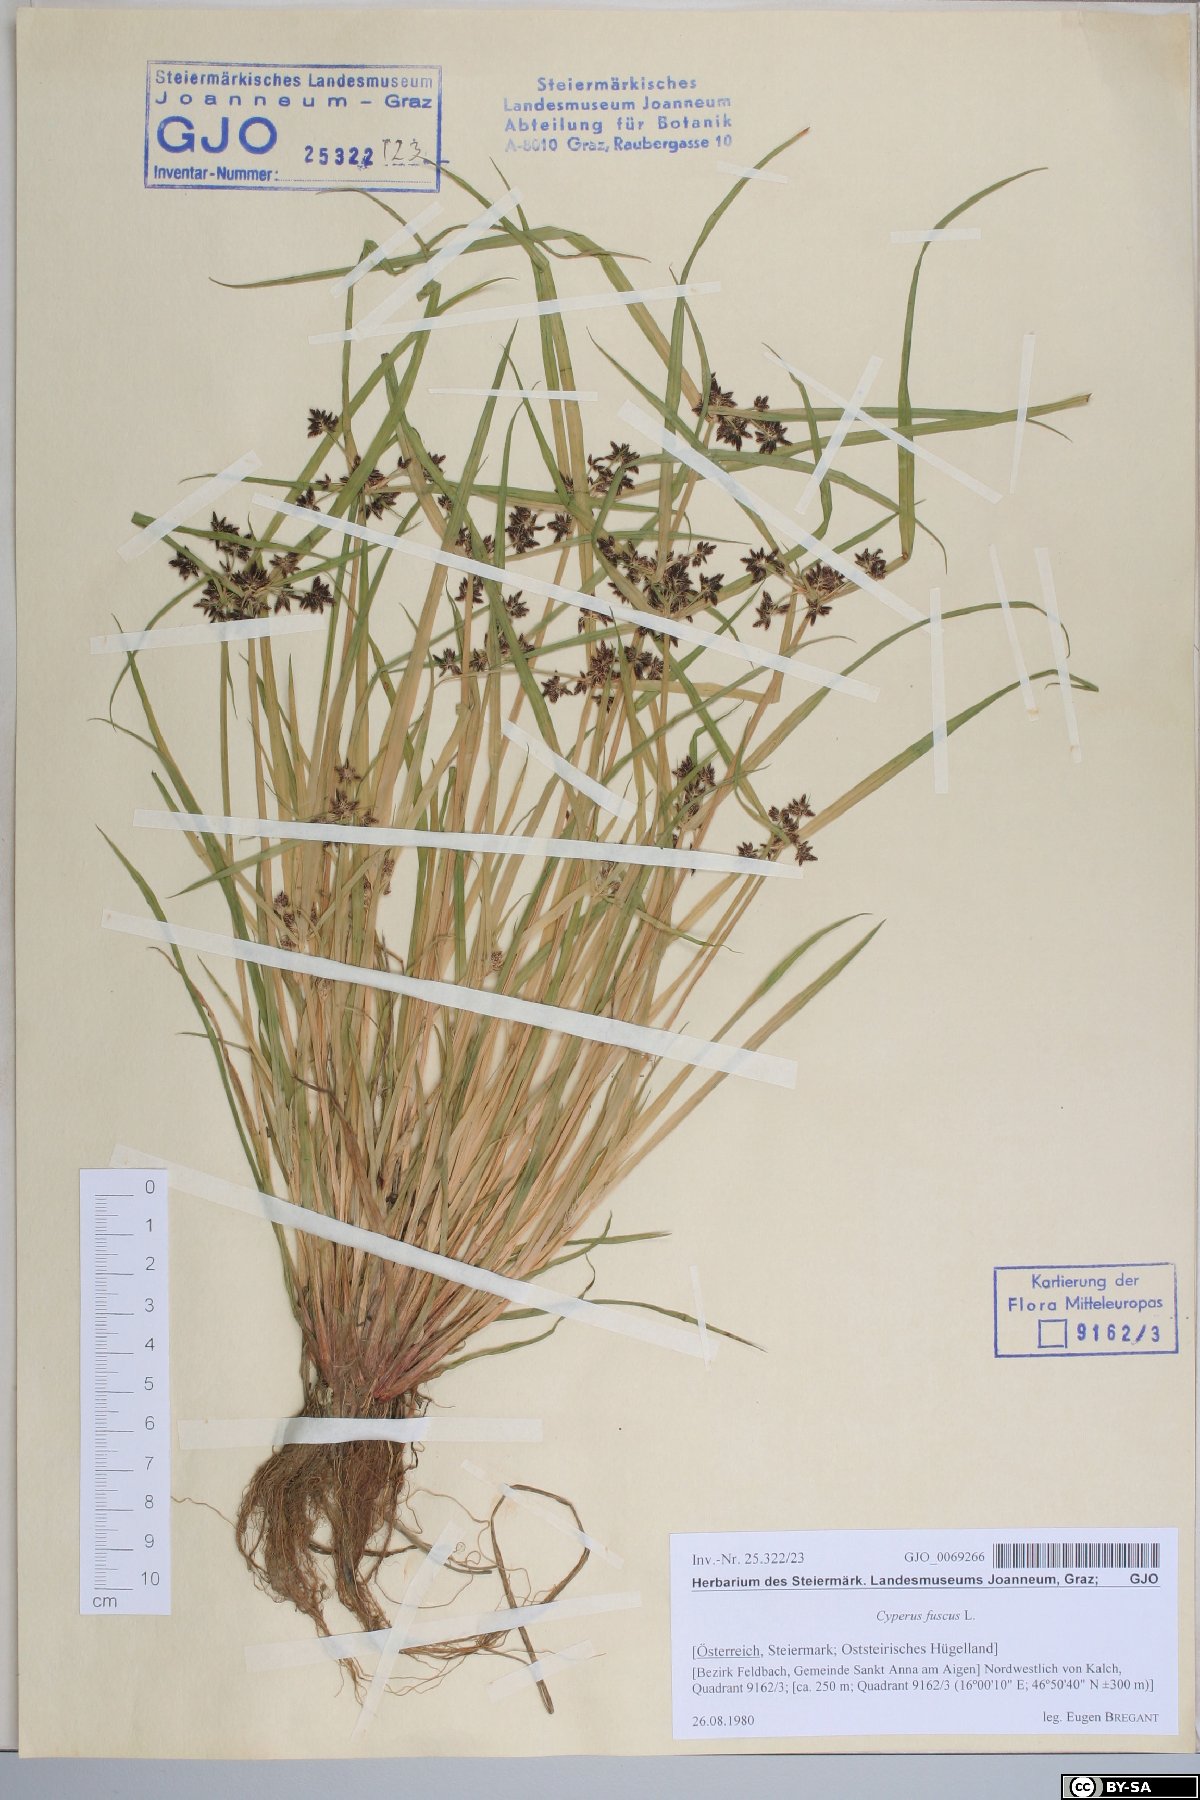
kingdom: Plantae
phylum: Tracheophyta
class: Liliopsida
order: Poales
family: Cyperaceae
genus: Cyperus
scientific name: Cyperus fuscus
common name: Brown galingale
